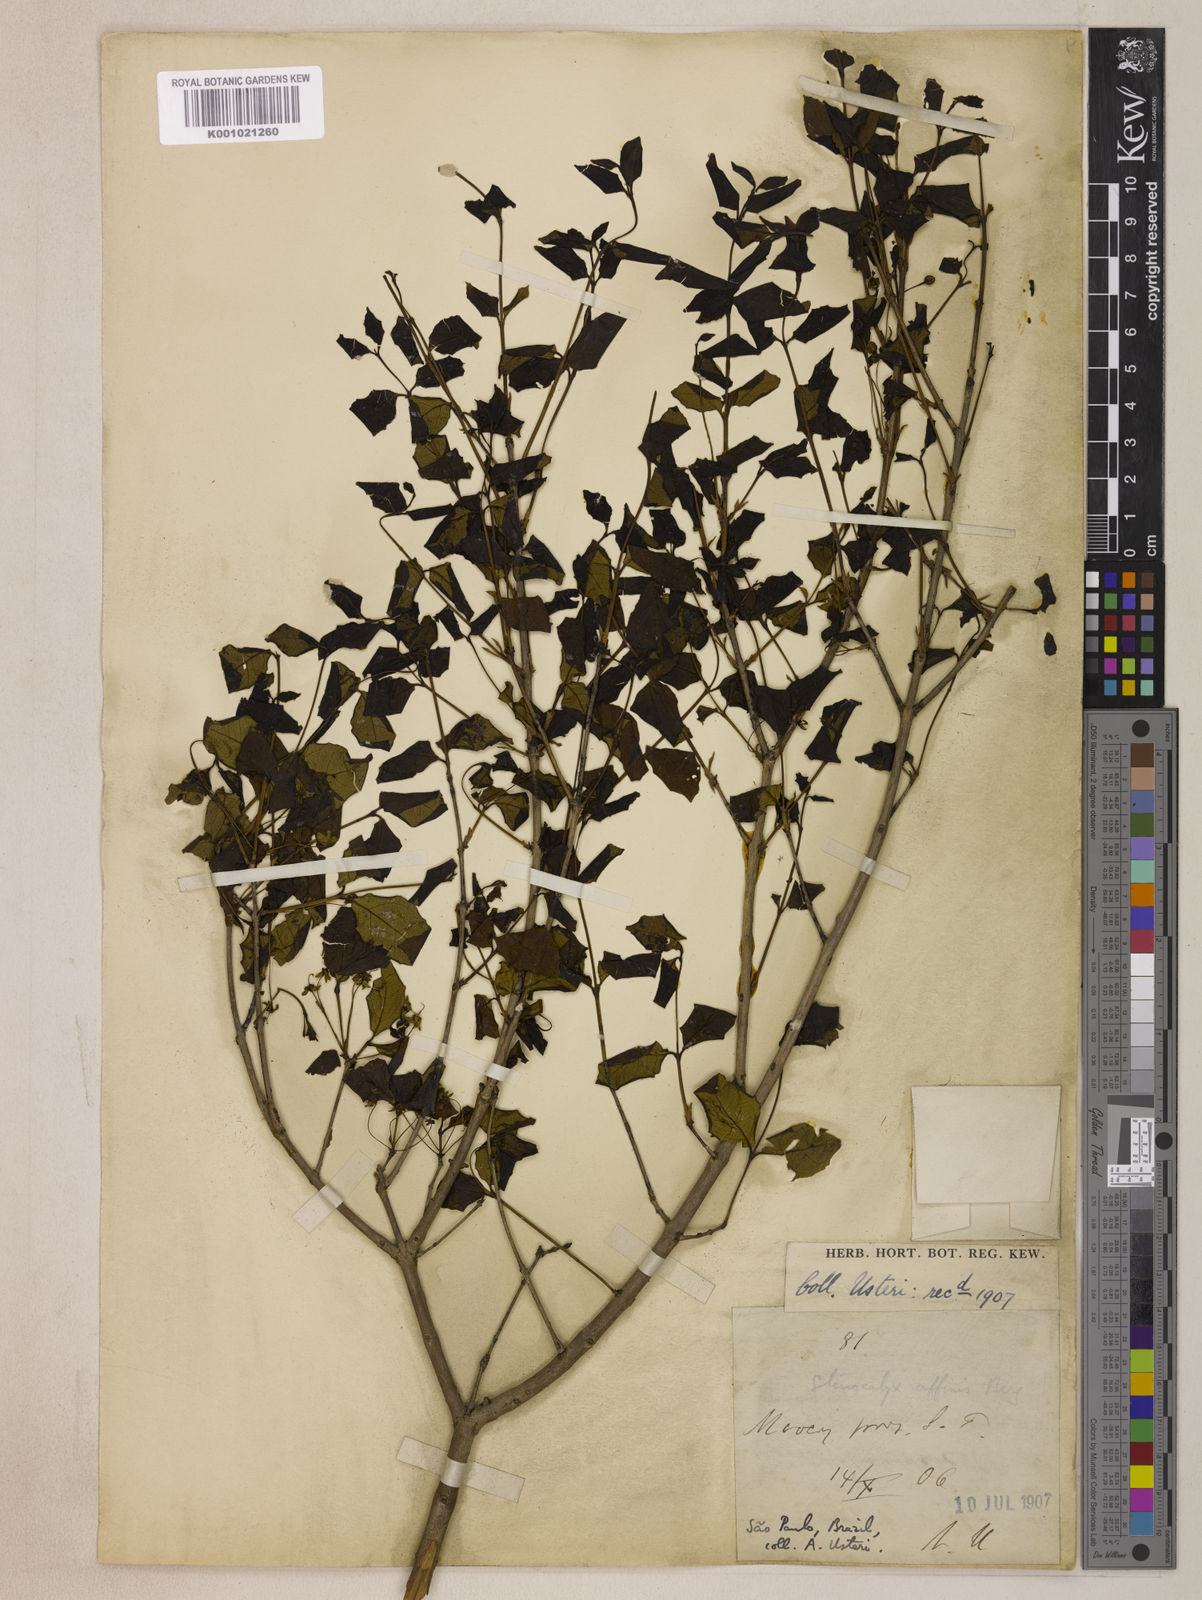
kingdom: Plantae
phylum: Tracheophyta
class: Magnoliopsida
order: Myrtales
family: Myrtaceae
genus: Eugenia
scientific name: Eugenia uniflora
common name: Surinam cherry
